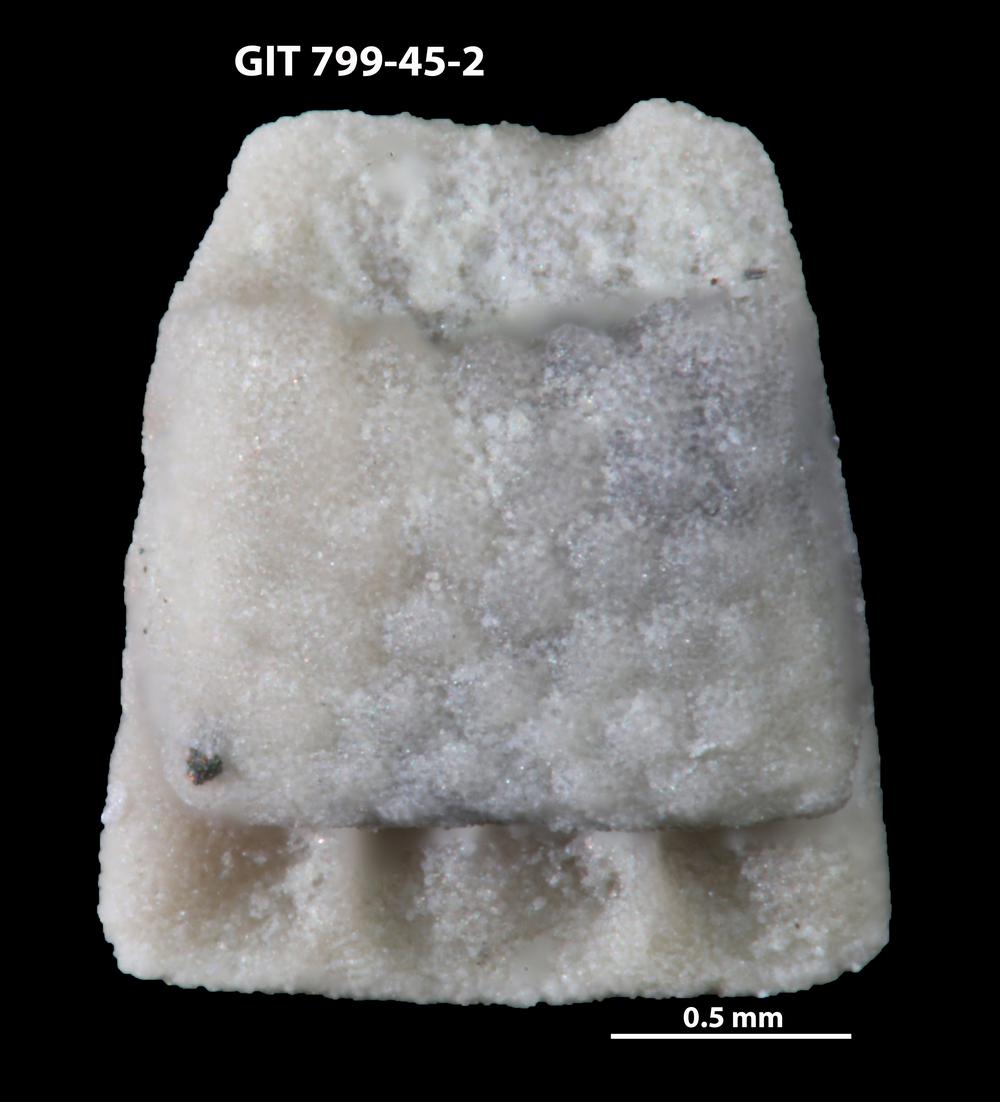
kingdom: Animalia
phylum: Echinodermata
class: Crinoidea
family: Cyclocystoididae
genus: Cyclocystoides
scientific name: Cyclocystoides
